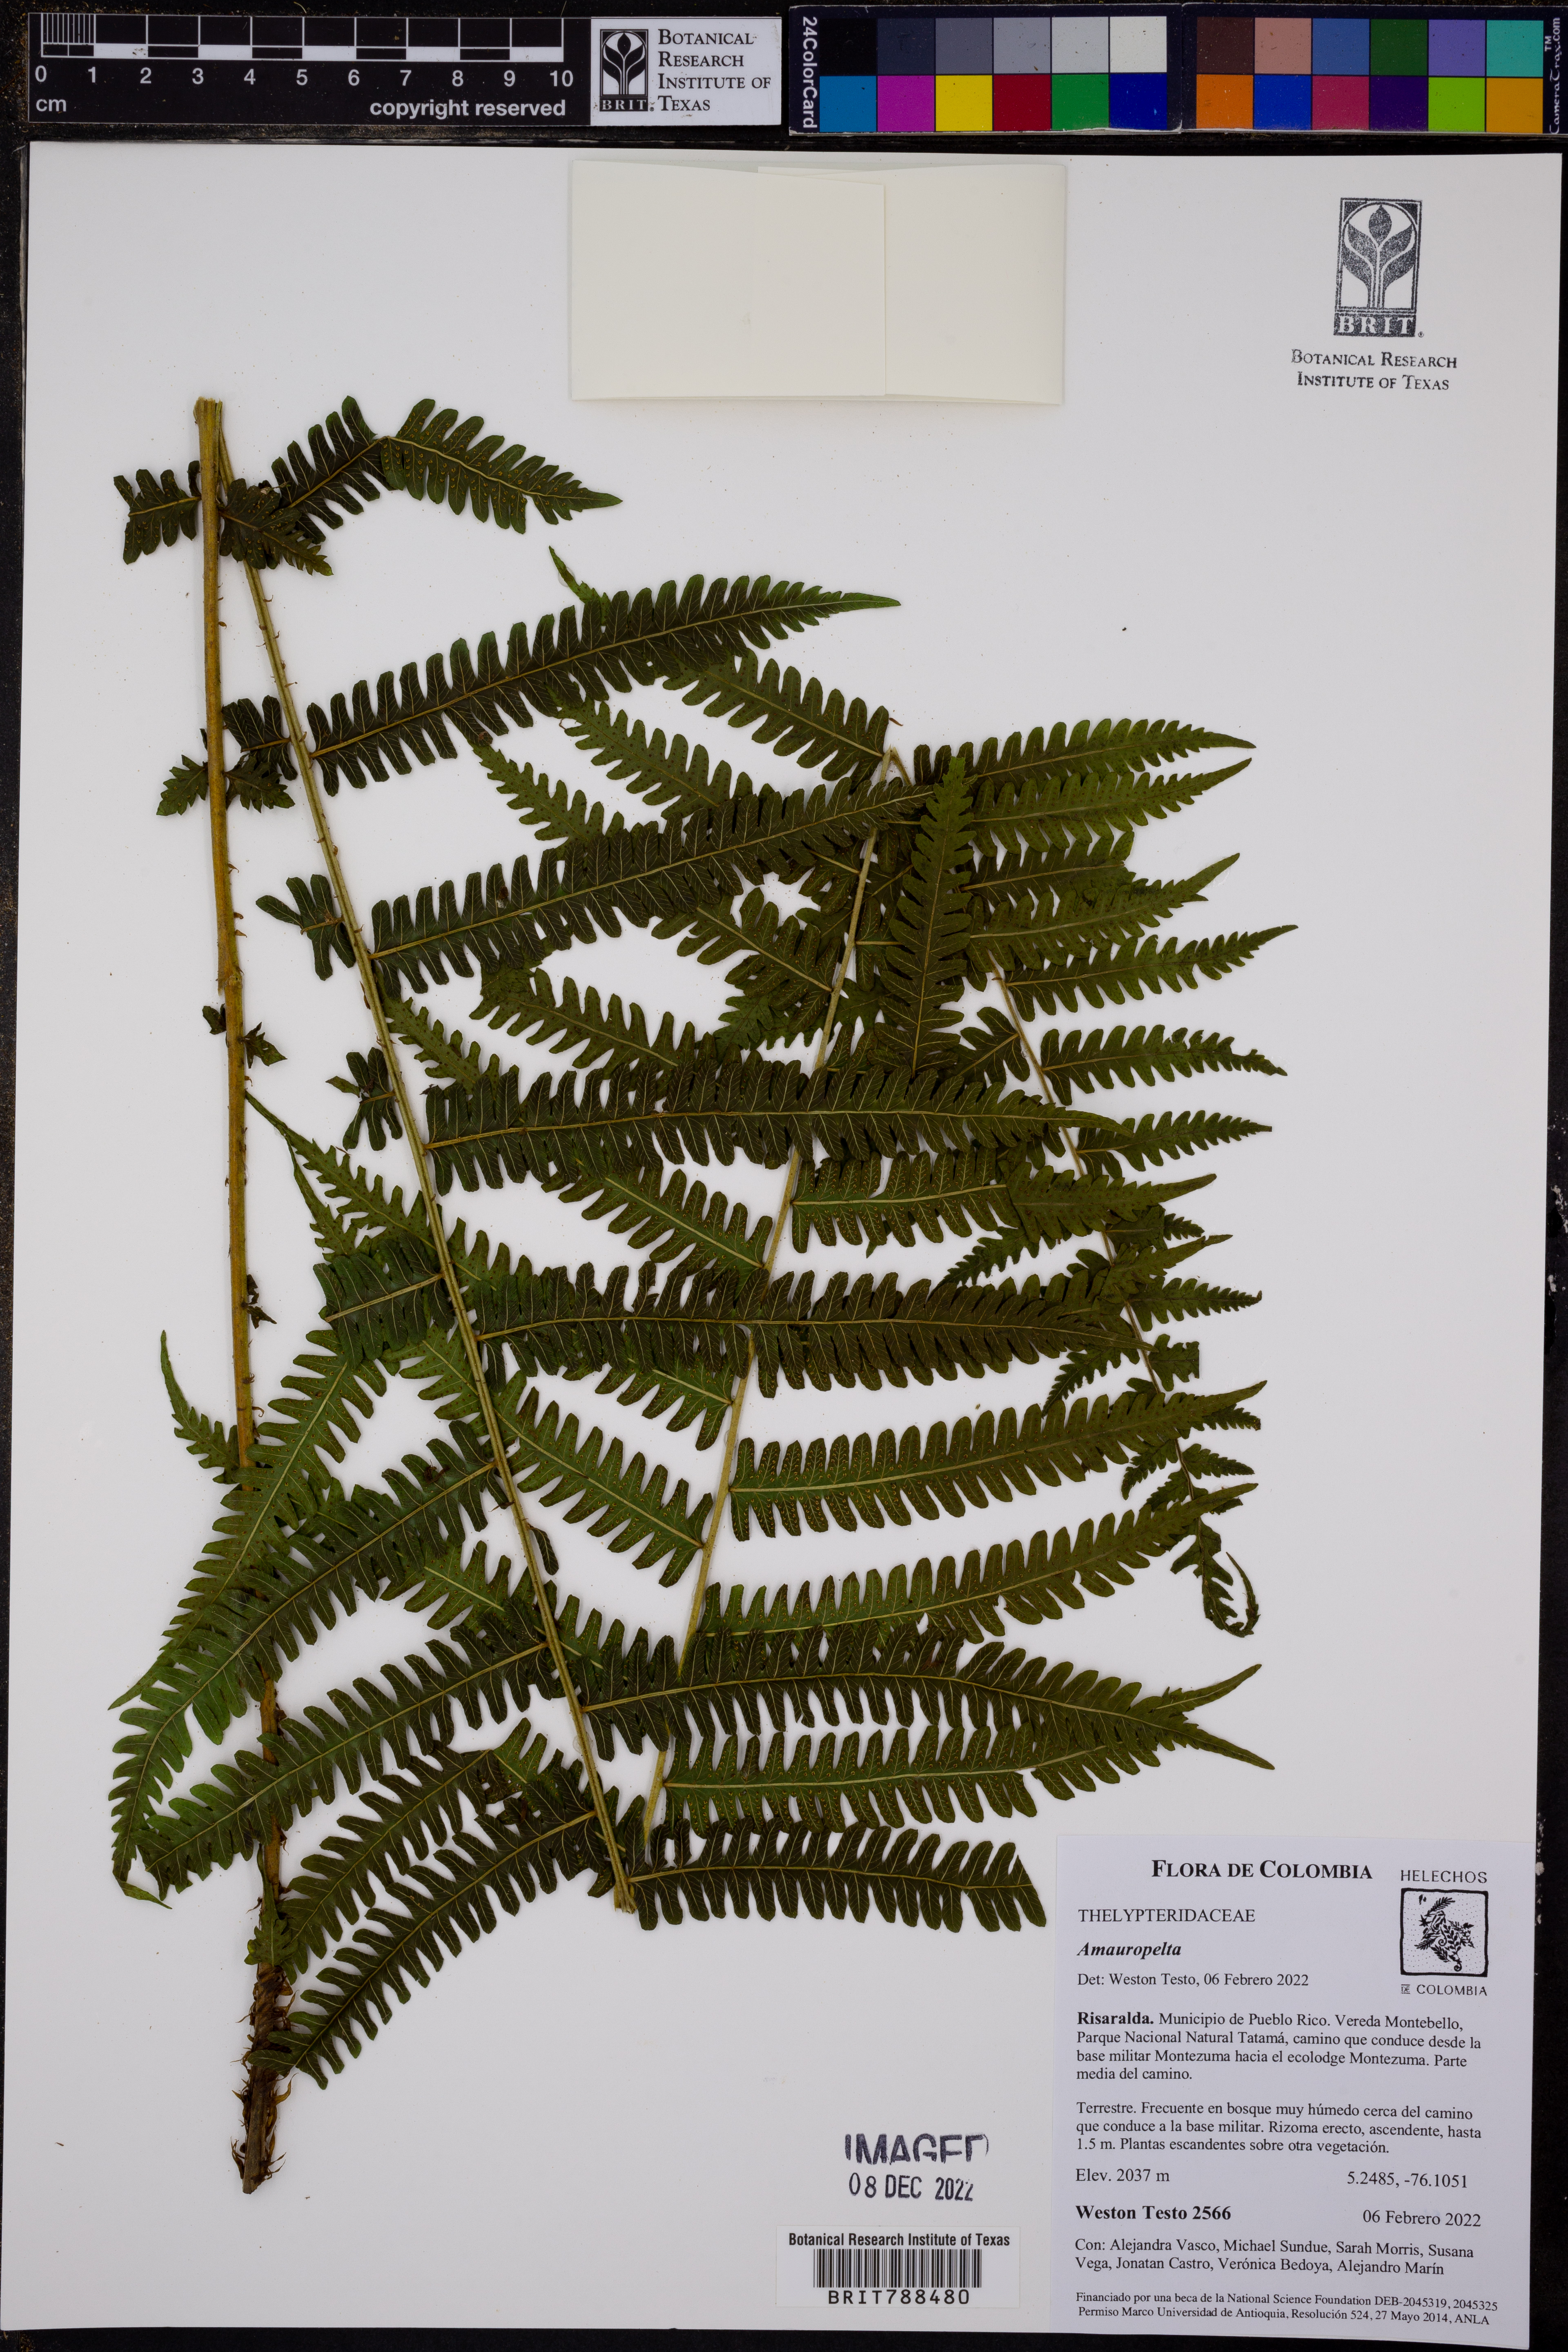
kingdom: Plantae
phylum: Tracheophyta
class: Polypodiopsida
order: Polypodiales
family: Thelypteridaceae
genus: Amauropelta
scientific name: Amauropelta
